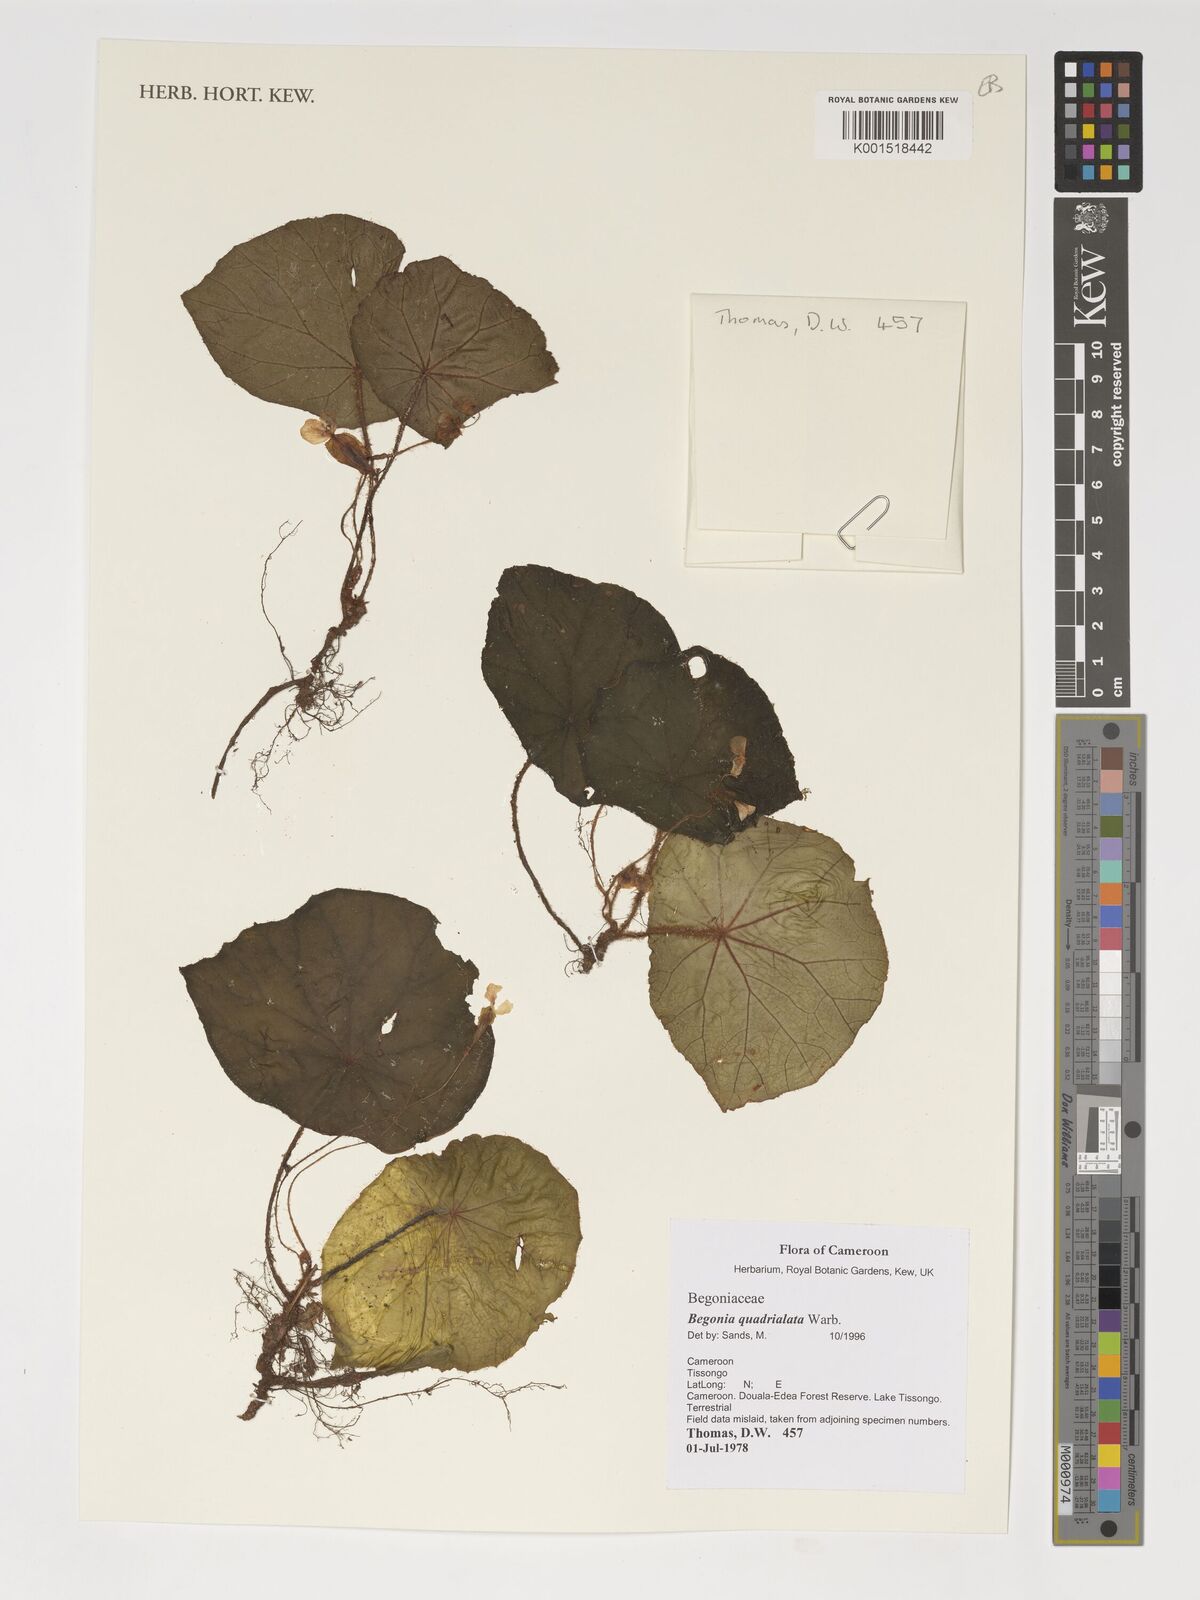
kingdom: Plantae
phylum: Tracheophyta
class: Magnoliopsida
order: Cucurbitales
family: Begoniaceae
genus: Begonia
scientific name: Begonia quadrialata
